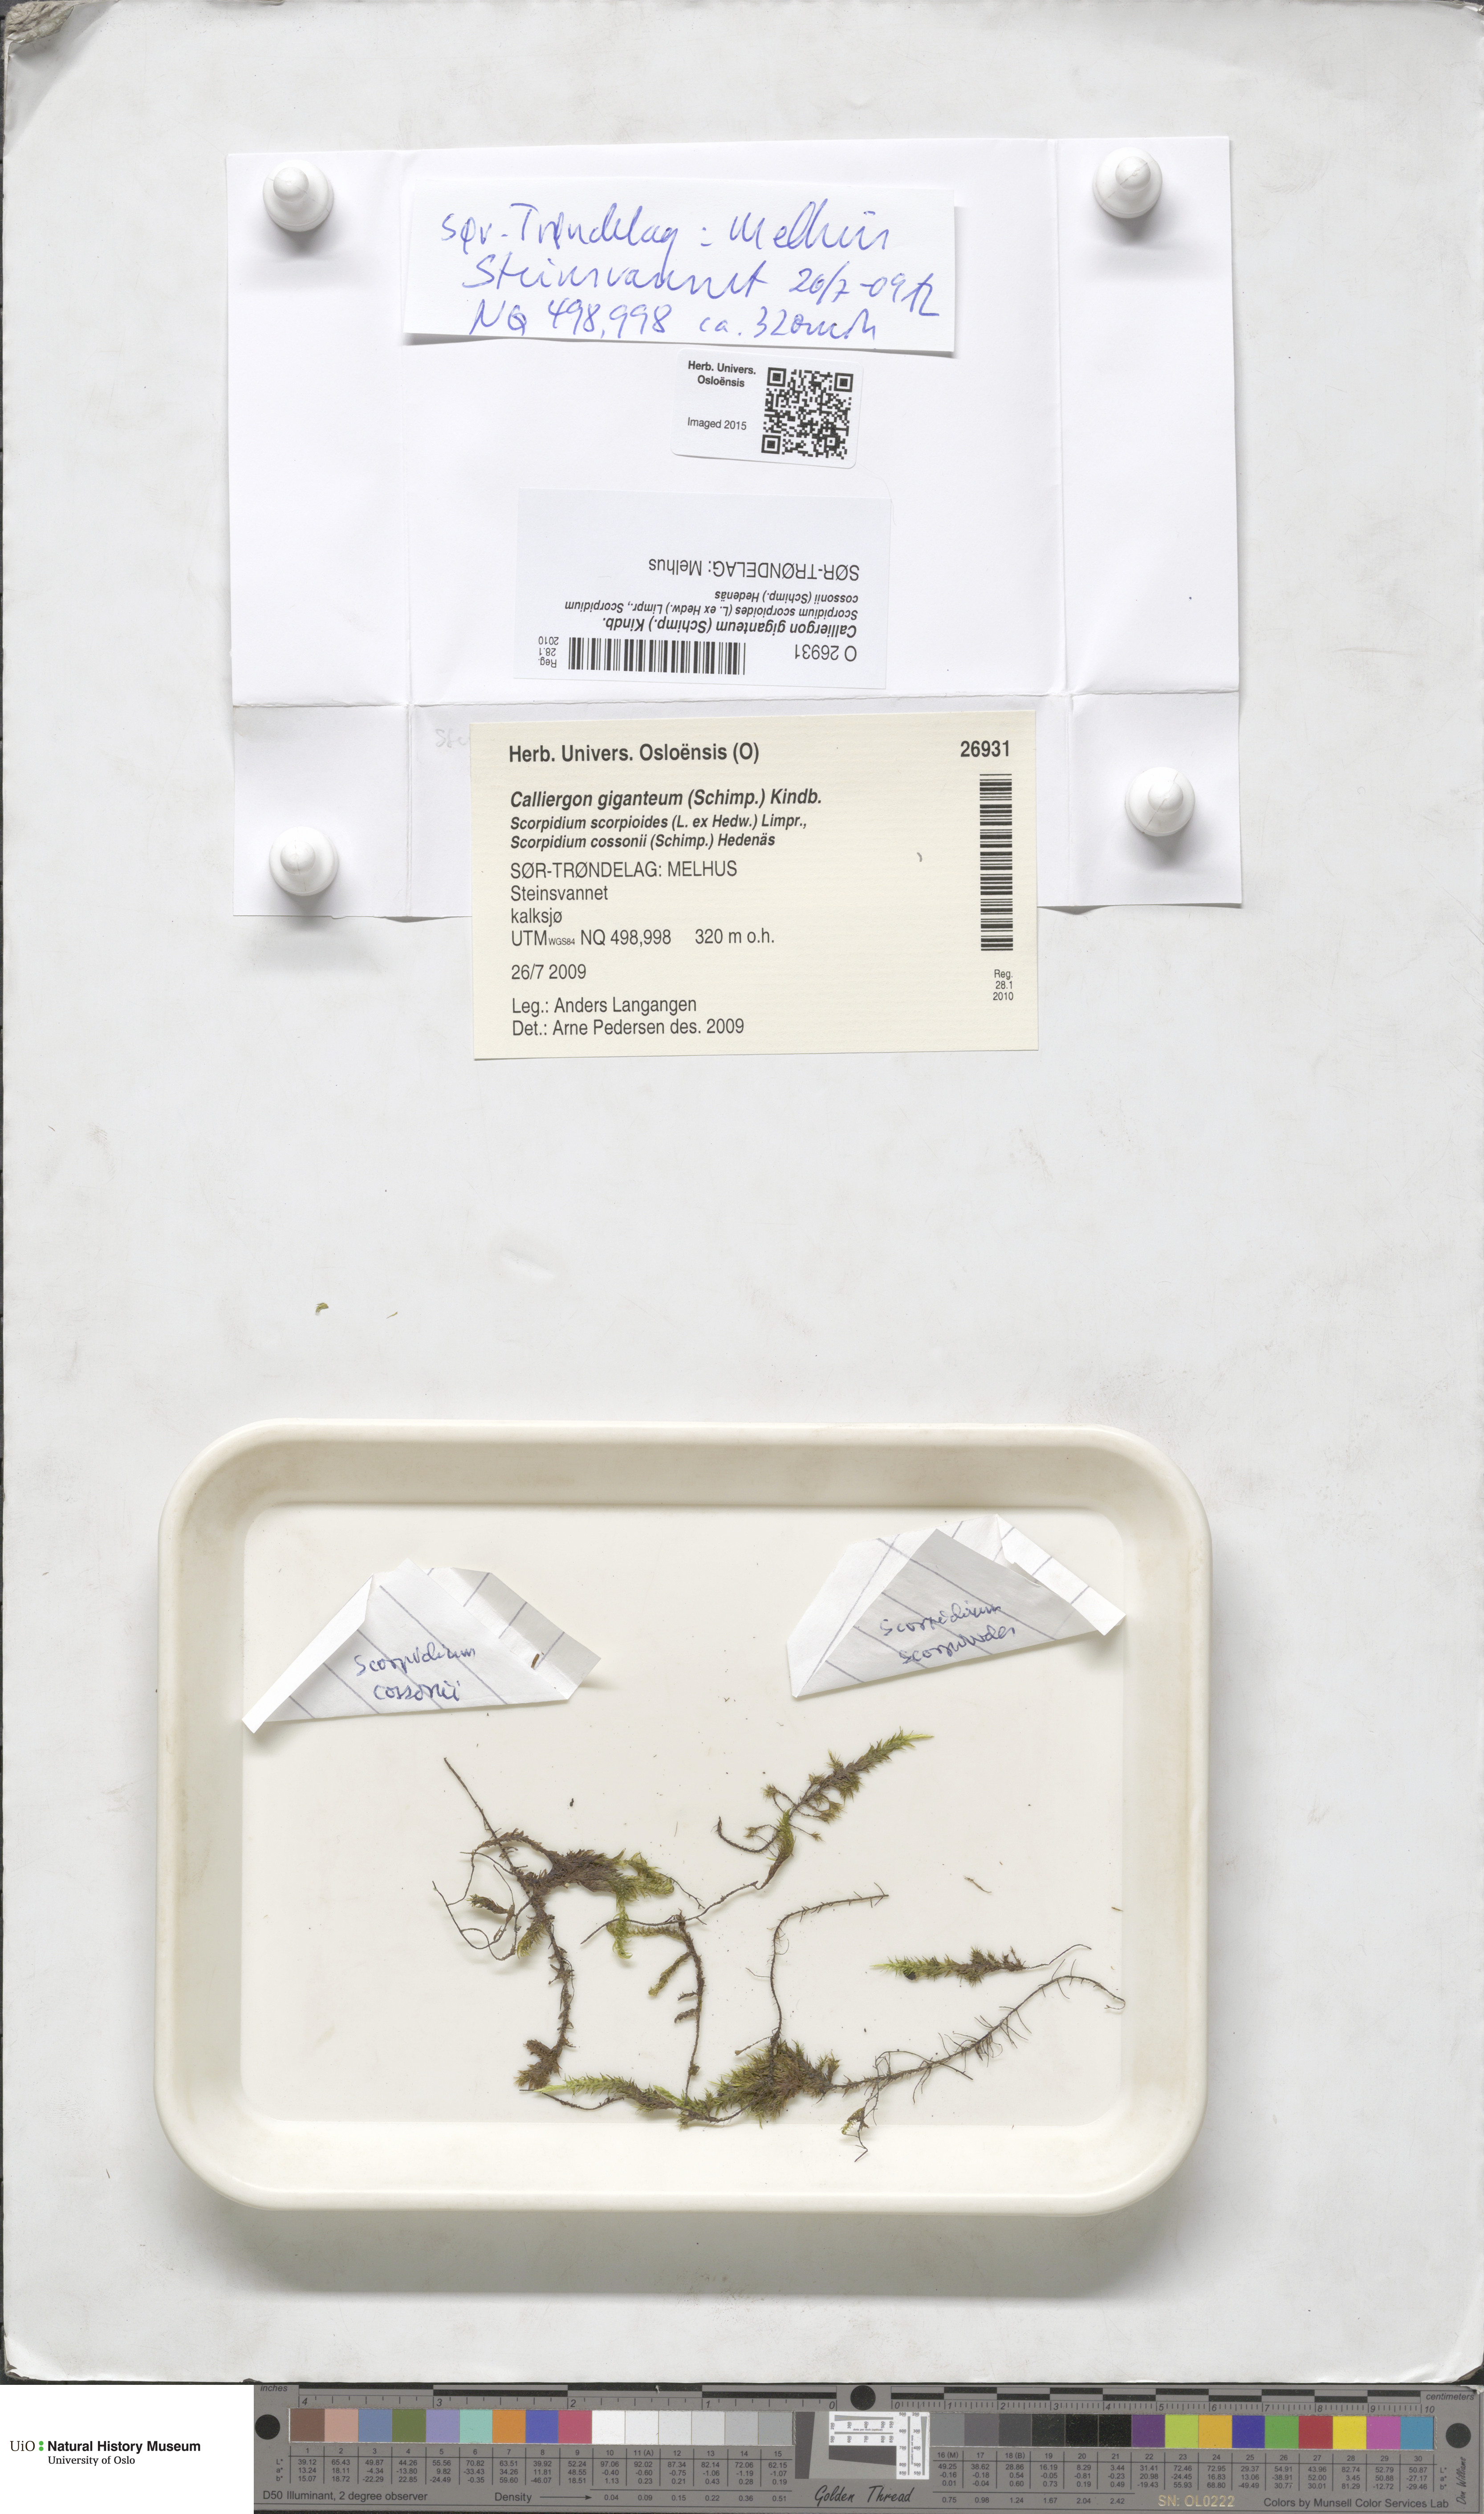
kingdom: Plantae
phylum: Bryophyta
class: Bryopsida
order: Hypnales
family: Calliergonaceae
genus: Calliergon
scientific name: Calliergon giganteum
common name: Giant spear moss
